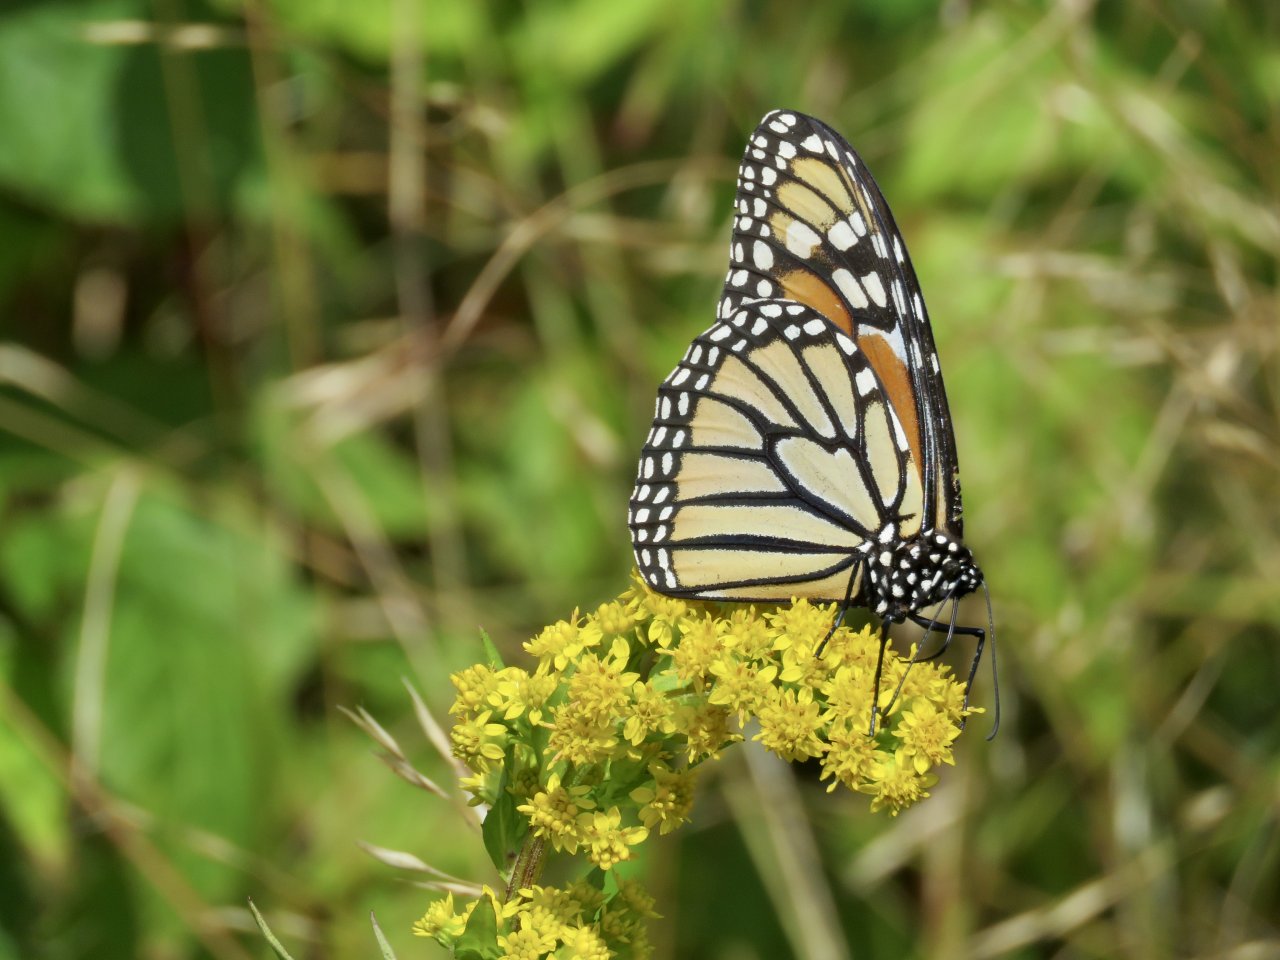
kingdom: Animalia
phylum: Arthropoda
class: Insecta
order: Lepidoptera
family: Nymphalidae
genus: Danaus
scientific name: Danaus plexippus
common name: Monarch
